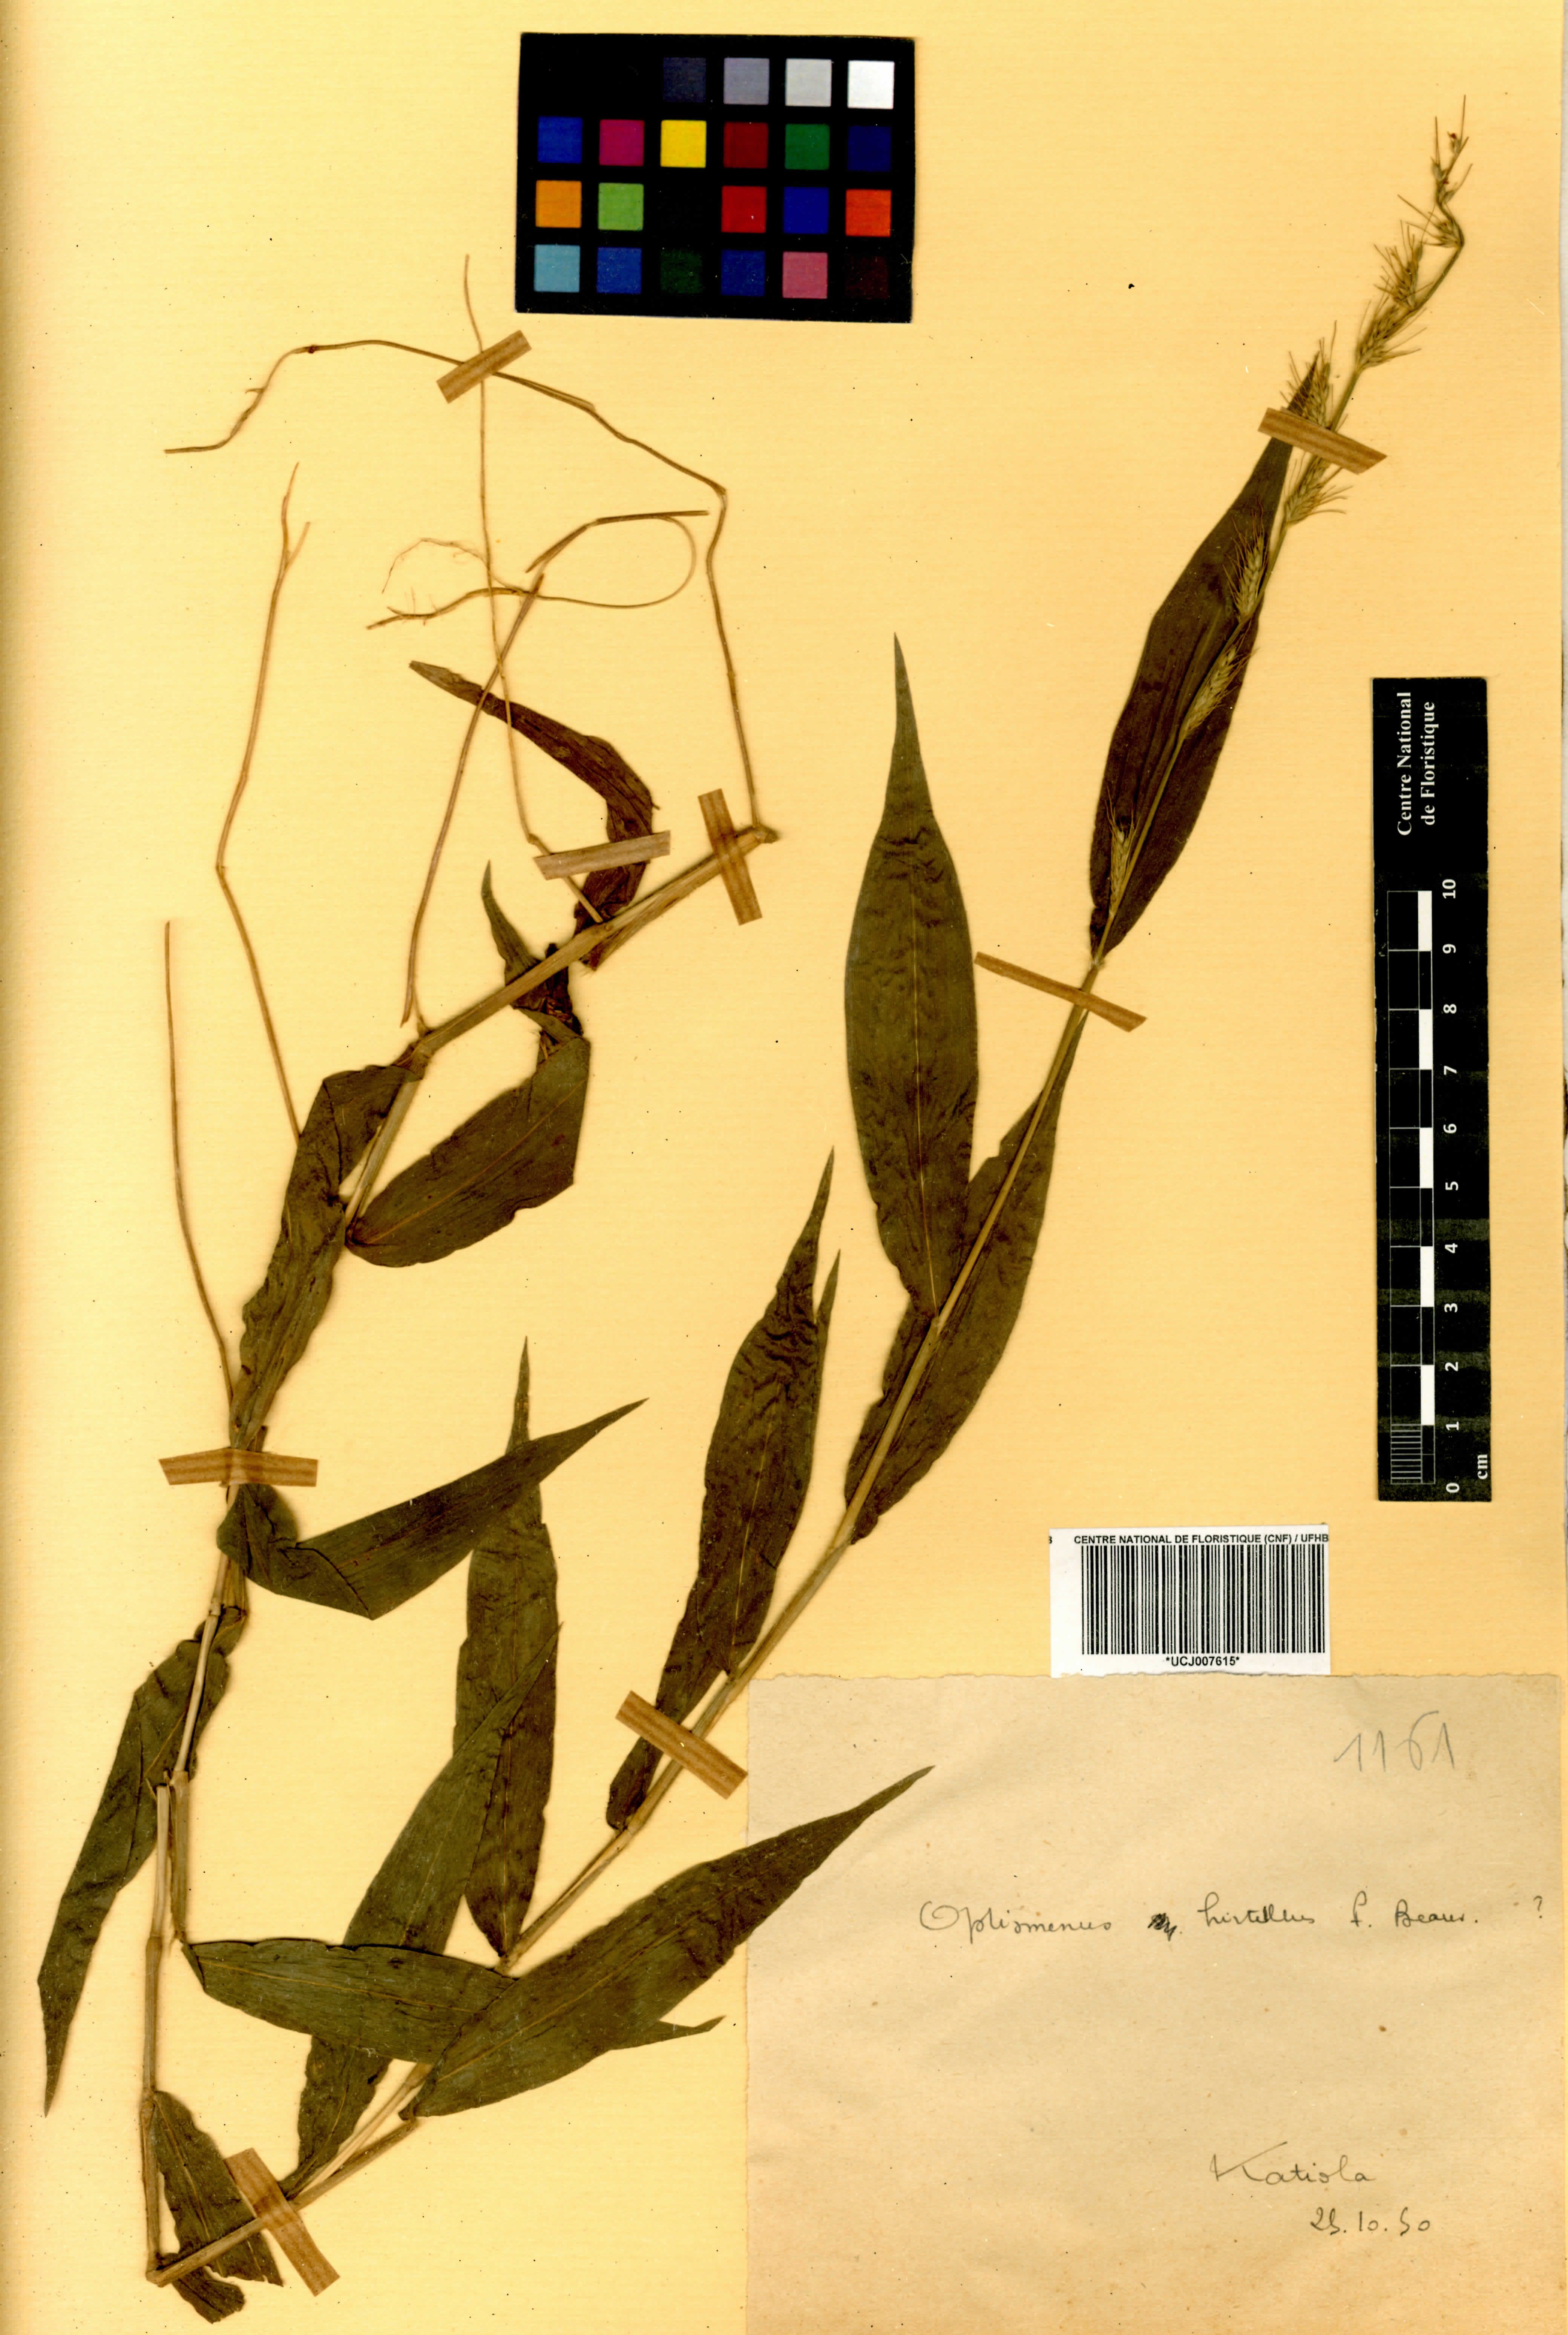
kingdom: Plantae
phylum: Tracheophyta
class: Liliopsida
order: Poales
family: Poaceae
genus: Oplismenus
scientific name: Oplismenus hirtellus
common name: Basketgrass
